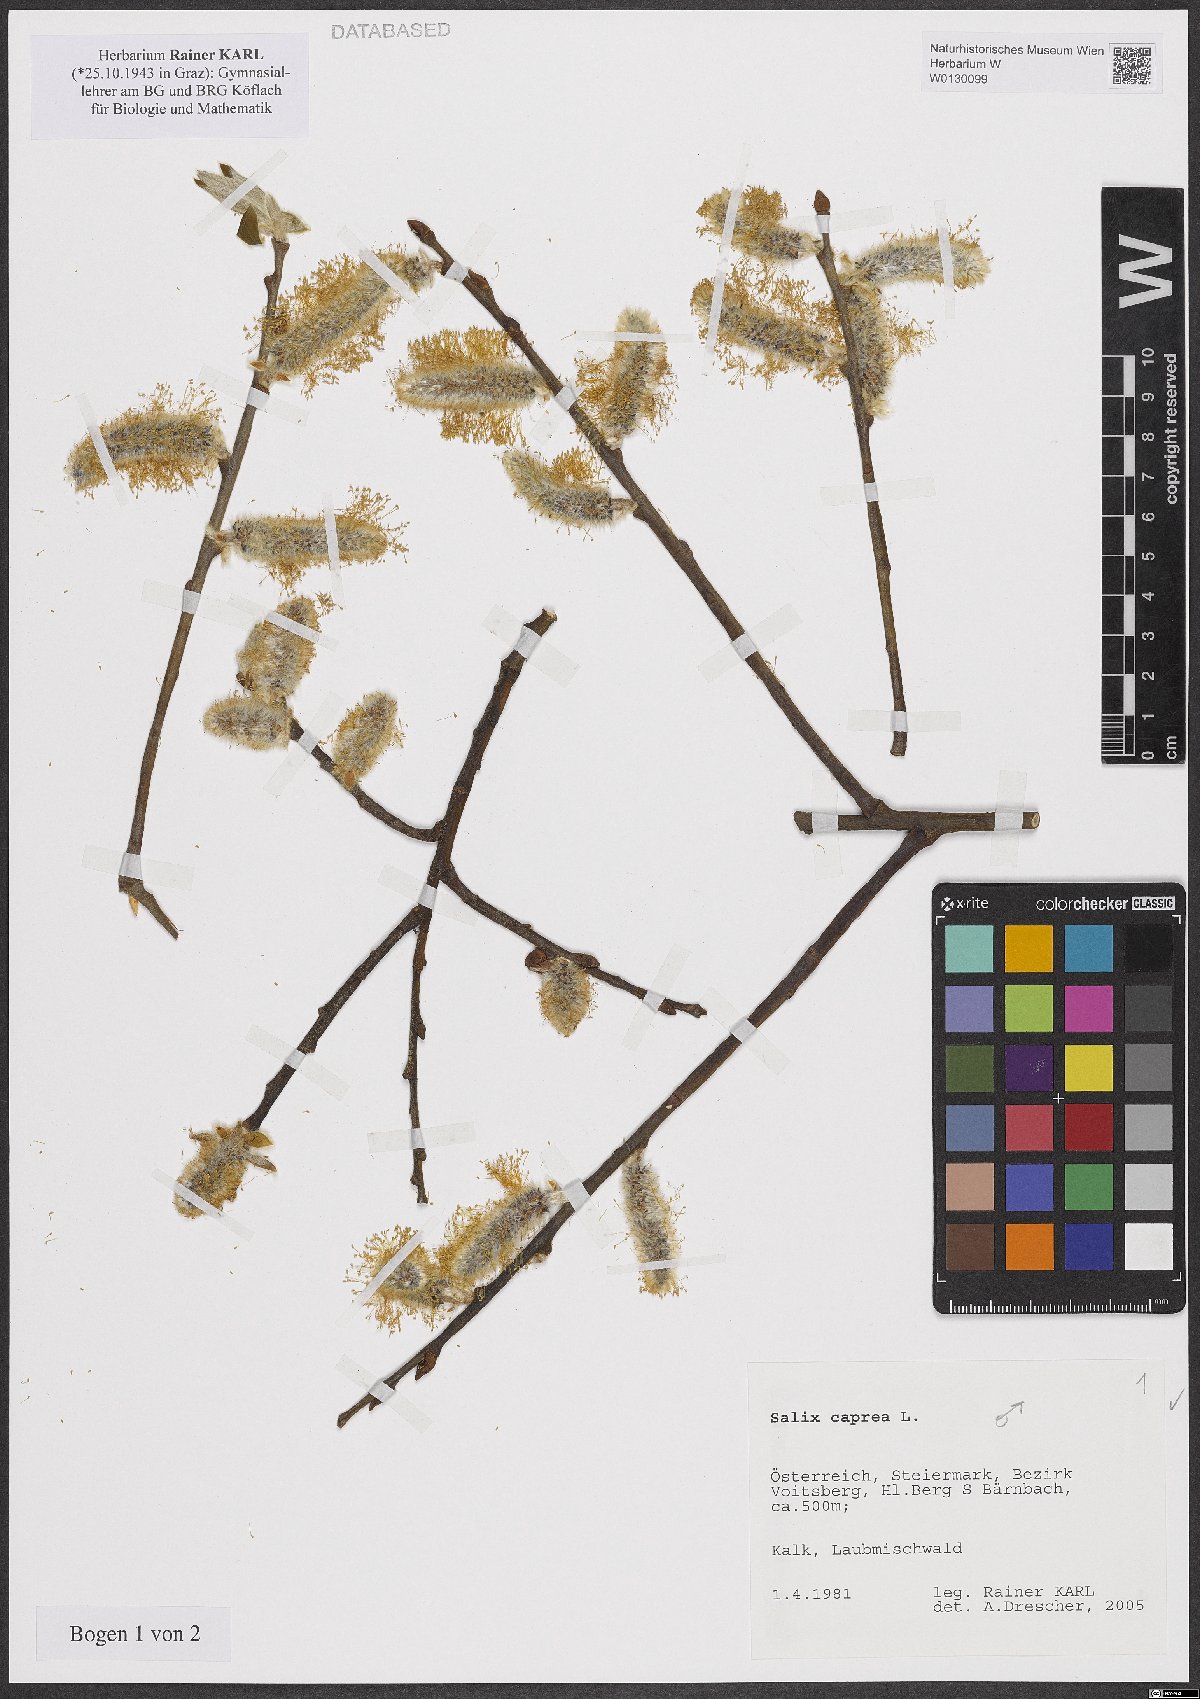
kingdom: Plantae
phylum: Tracheophyta
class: Magnoliopsida
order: Malpighiales
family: Salicaceae
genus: Salix
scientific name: Salix caprea
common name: Goat willow
